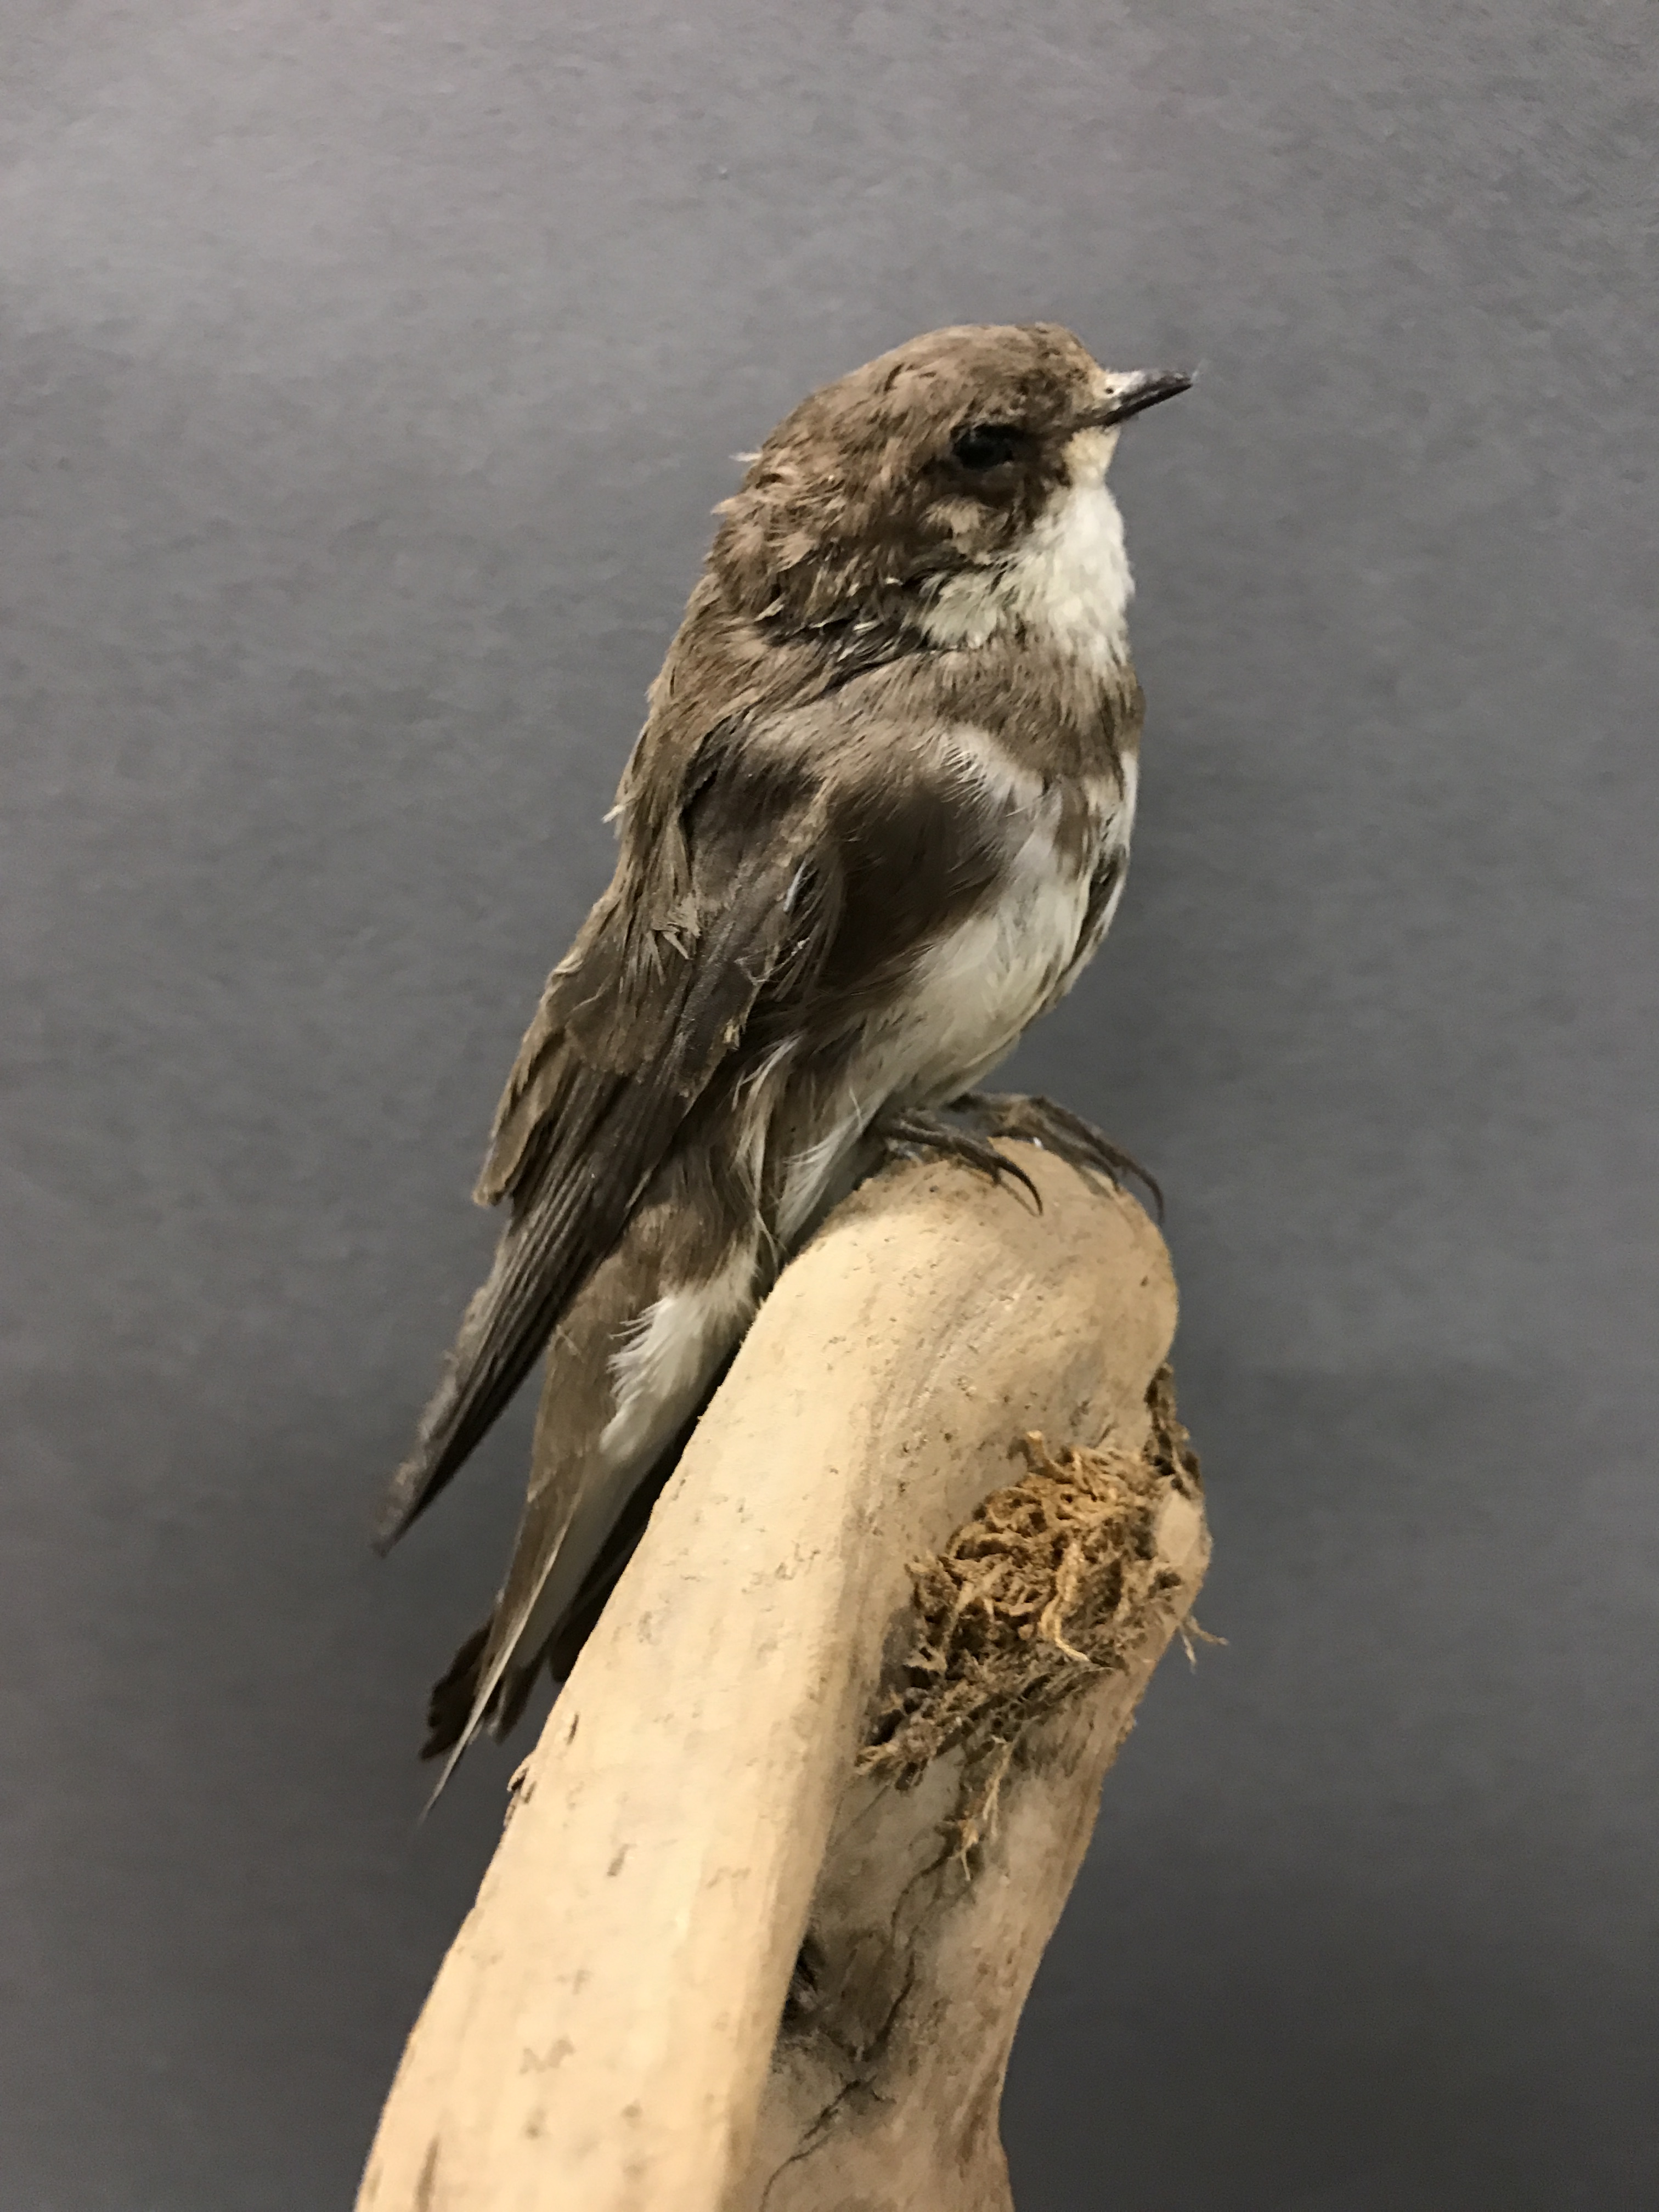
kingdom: Animalia
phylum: Chordata
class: Aves
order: Passeriformes
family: Hirundinidae
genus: Riparia
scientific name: Riparia riparia
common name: Sand martin
